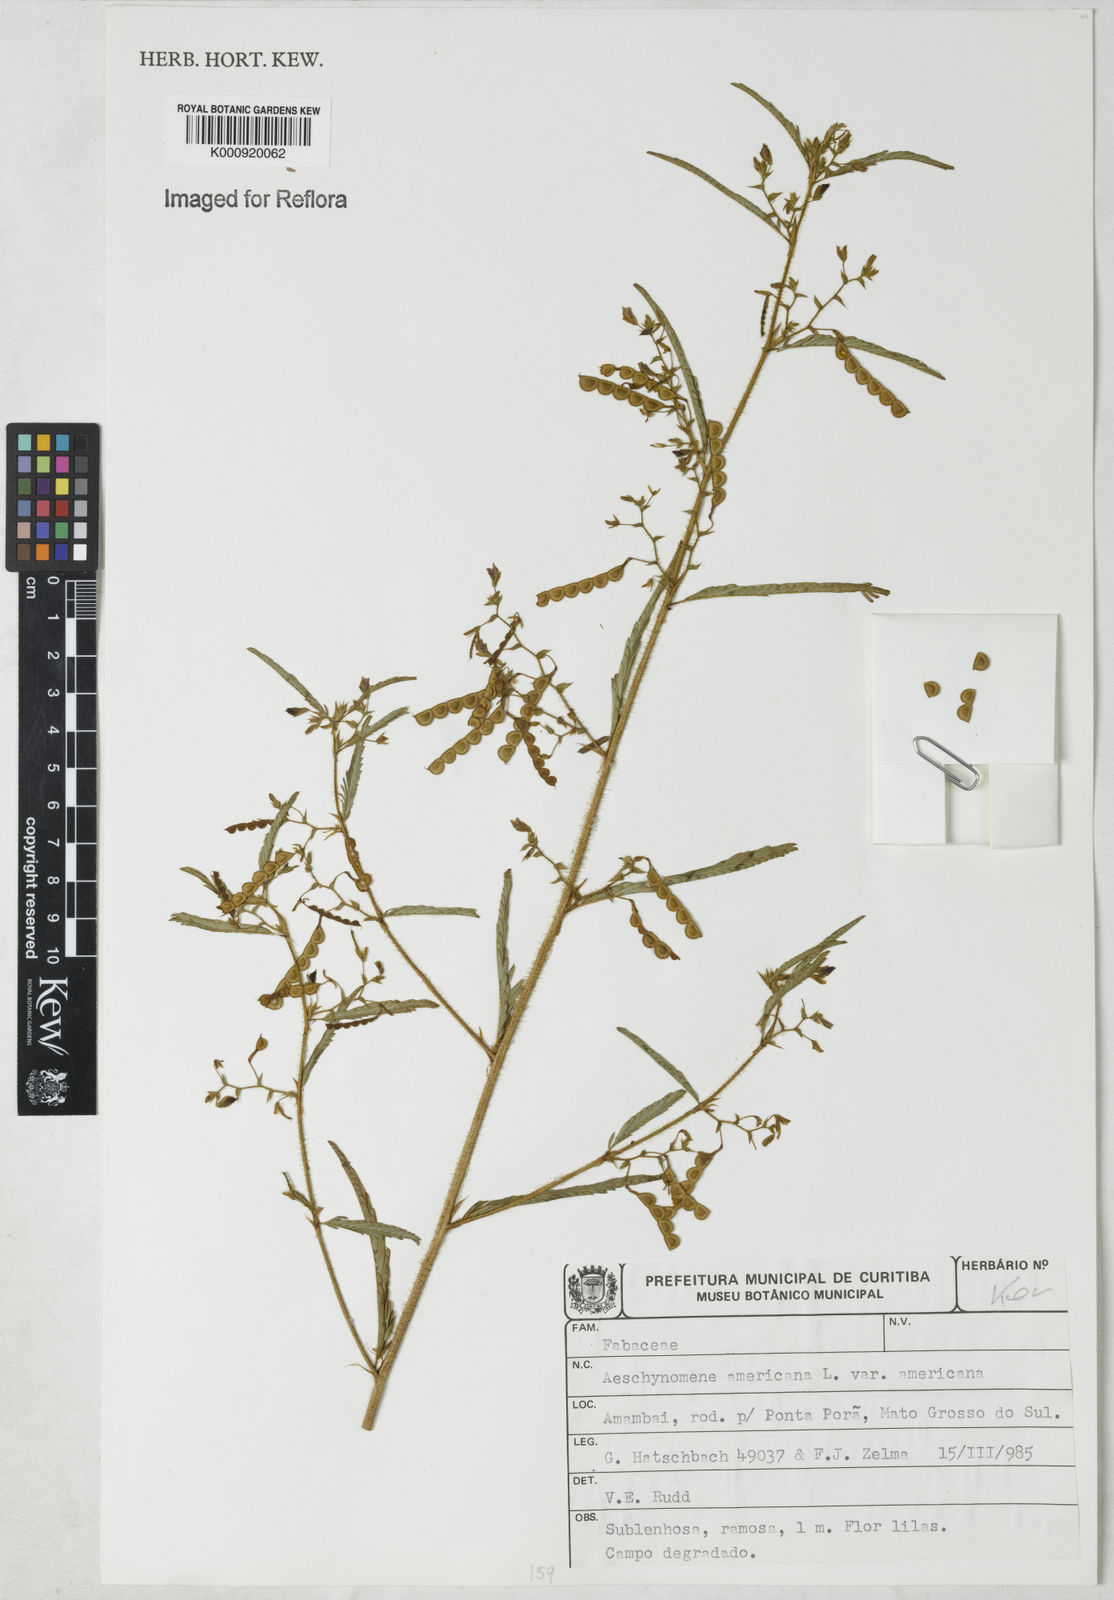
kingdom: Plantae
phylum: Tracheophyta
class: Magnoliopsida
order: Fabales
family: Fabaceae
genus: Aeschynomene
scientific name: Aeschynomene americana
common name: Joint-vetch
